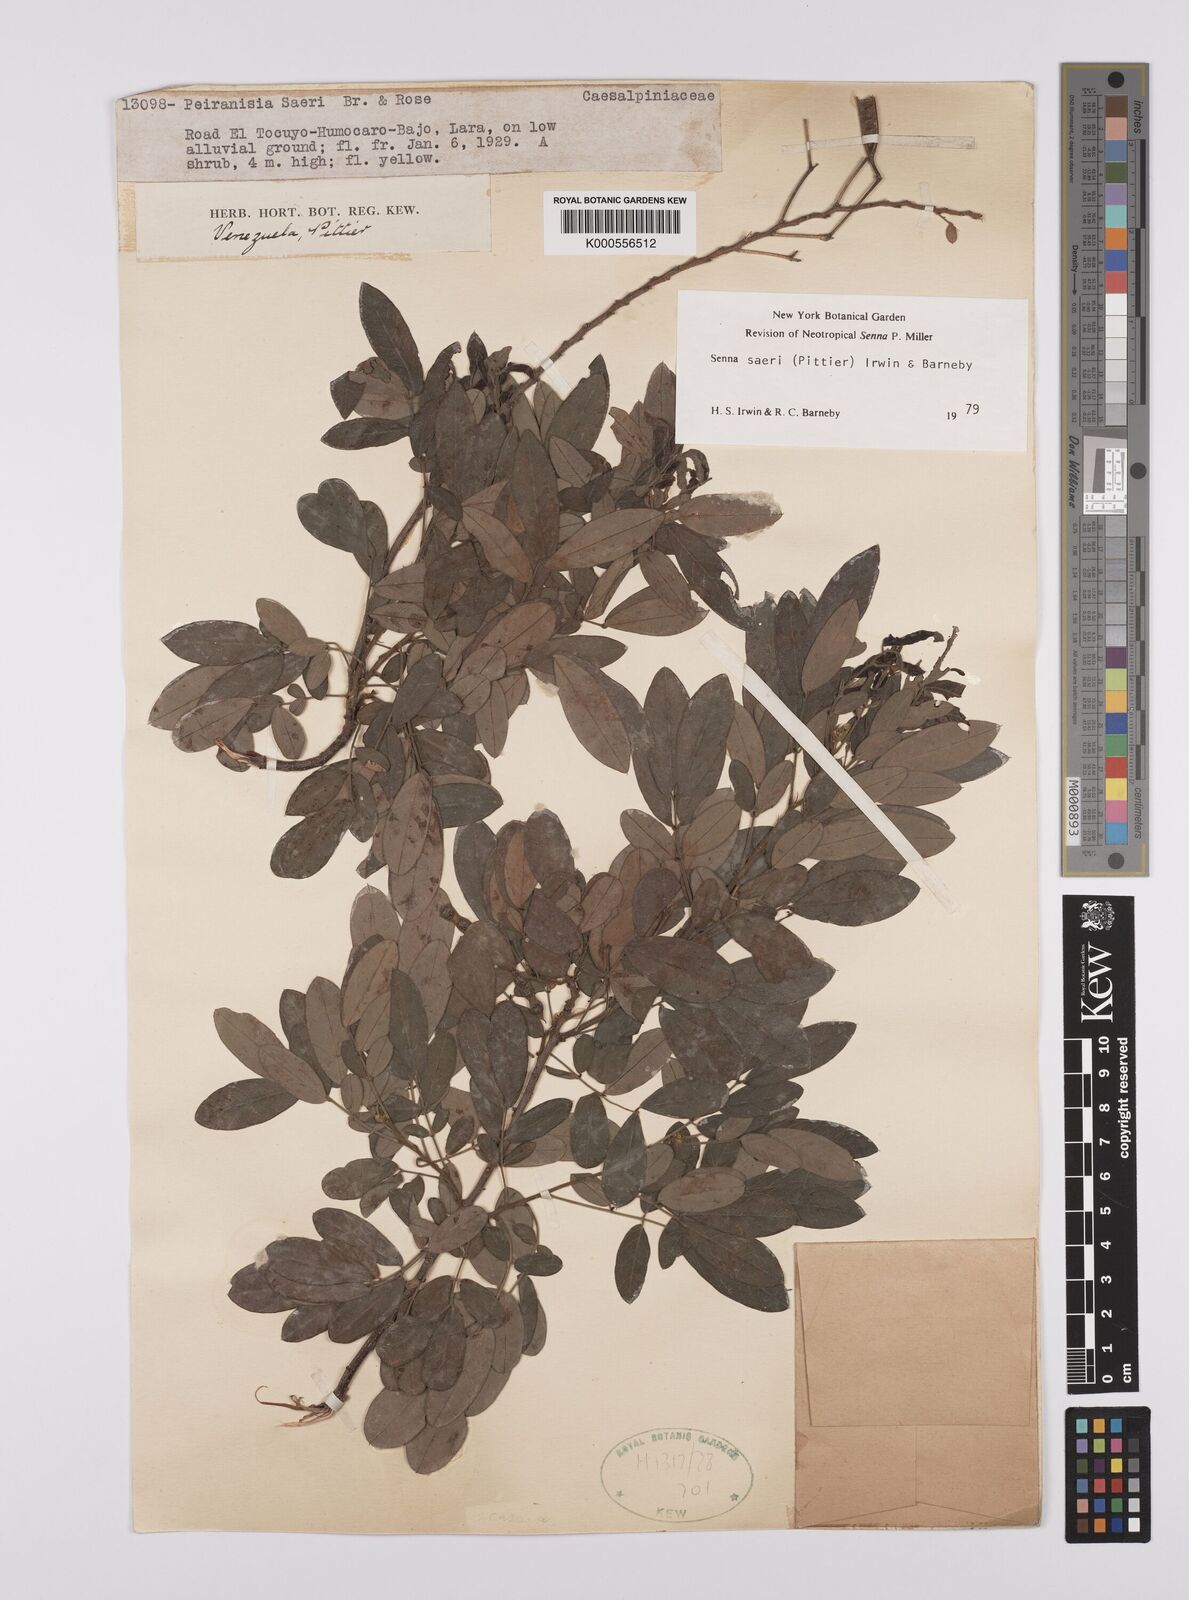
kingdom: Plantae
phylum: Tracheophyta
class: Magnoliopsida
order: Fabales
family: Fabaceae
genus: Senna
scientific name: Senna saeri
